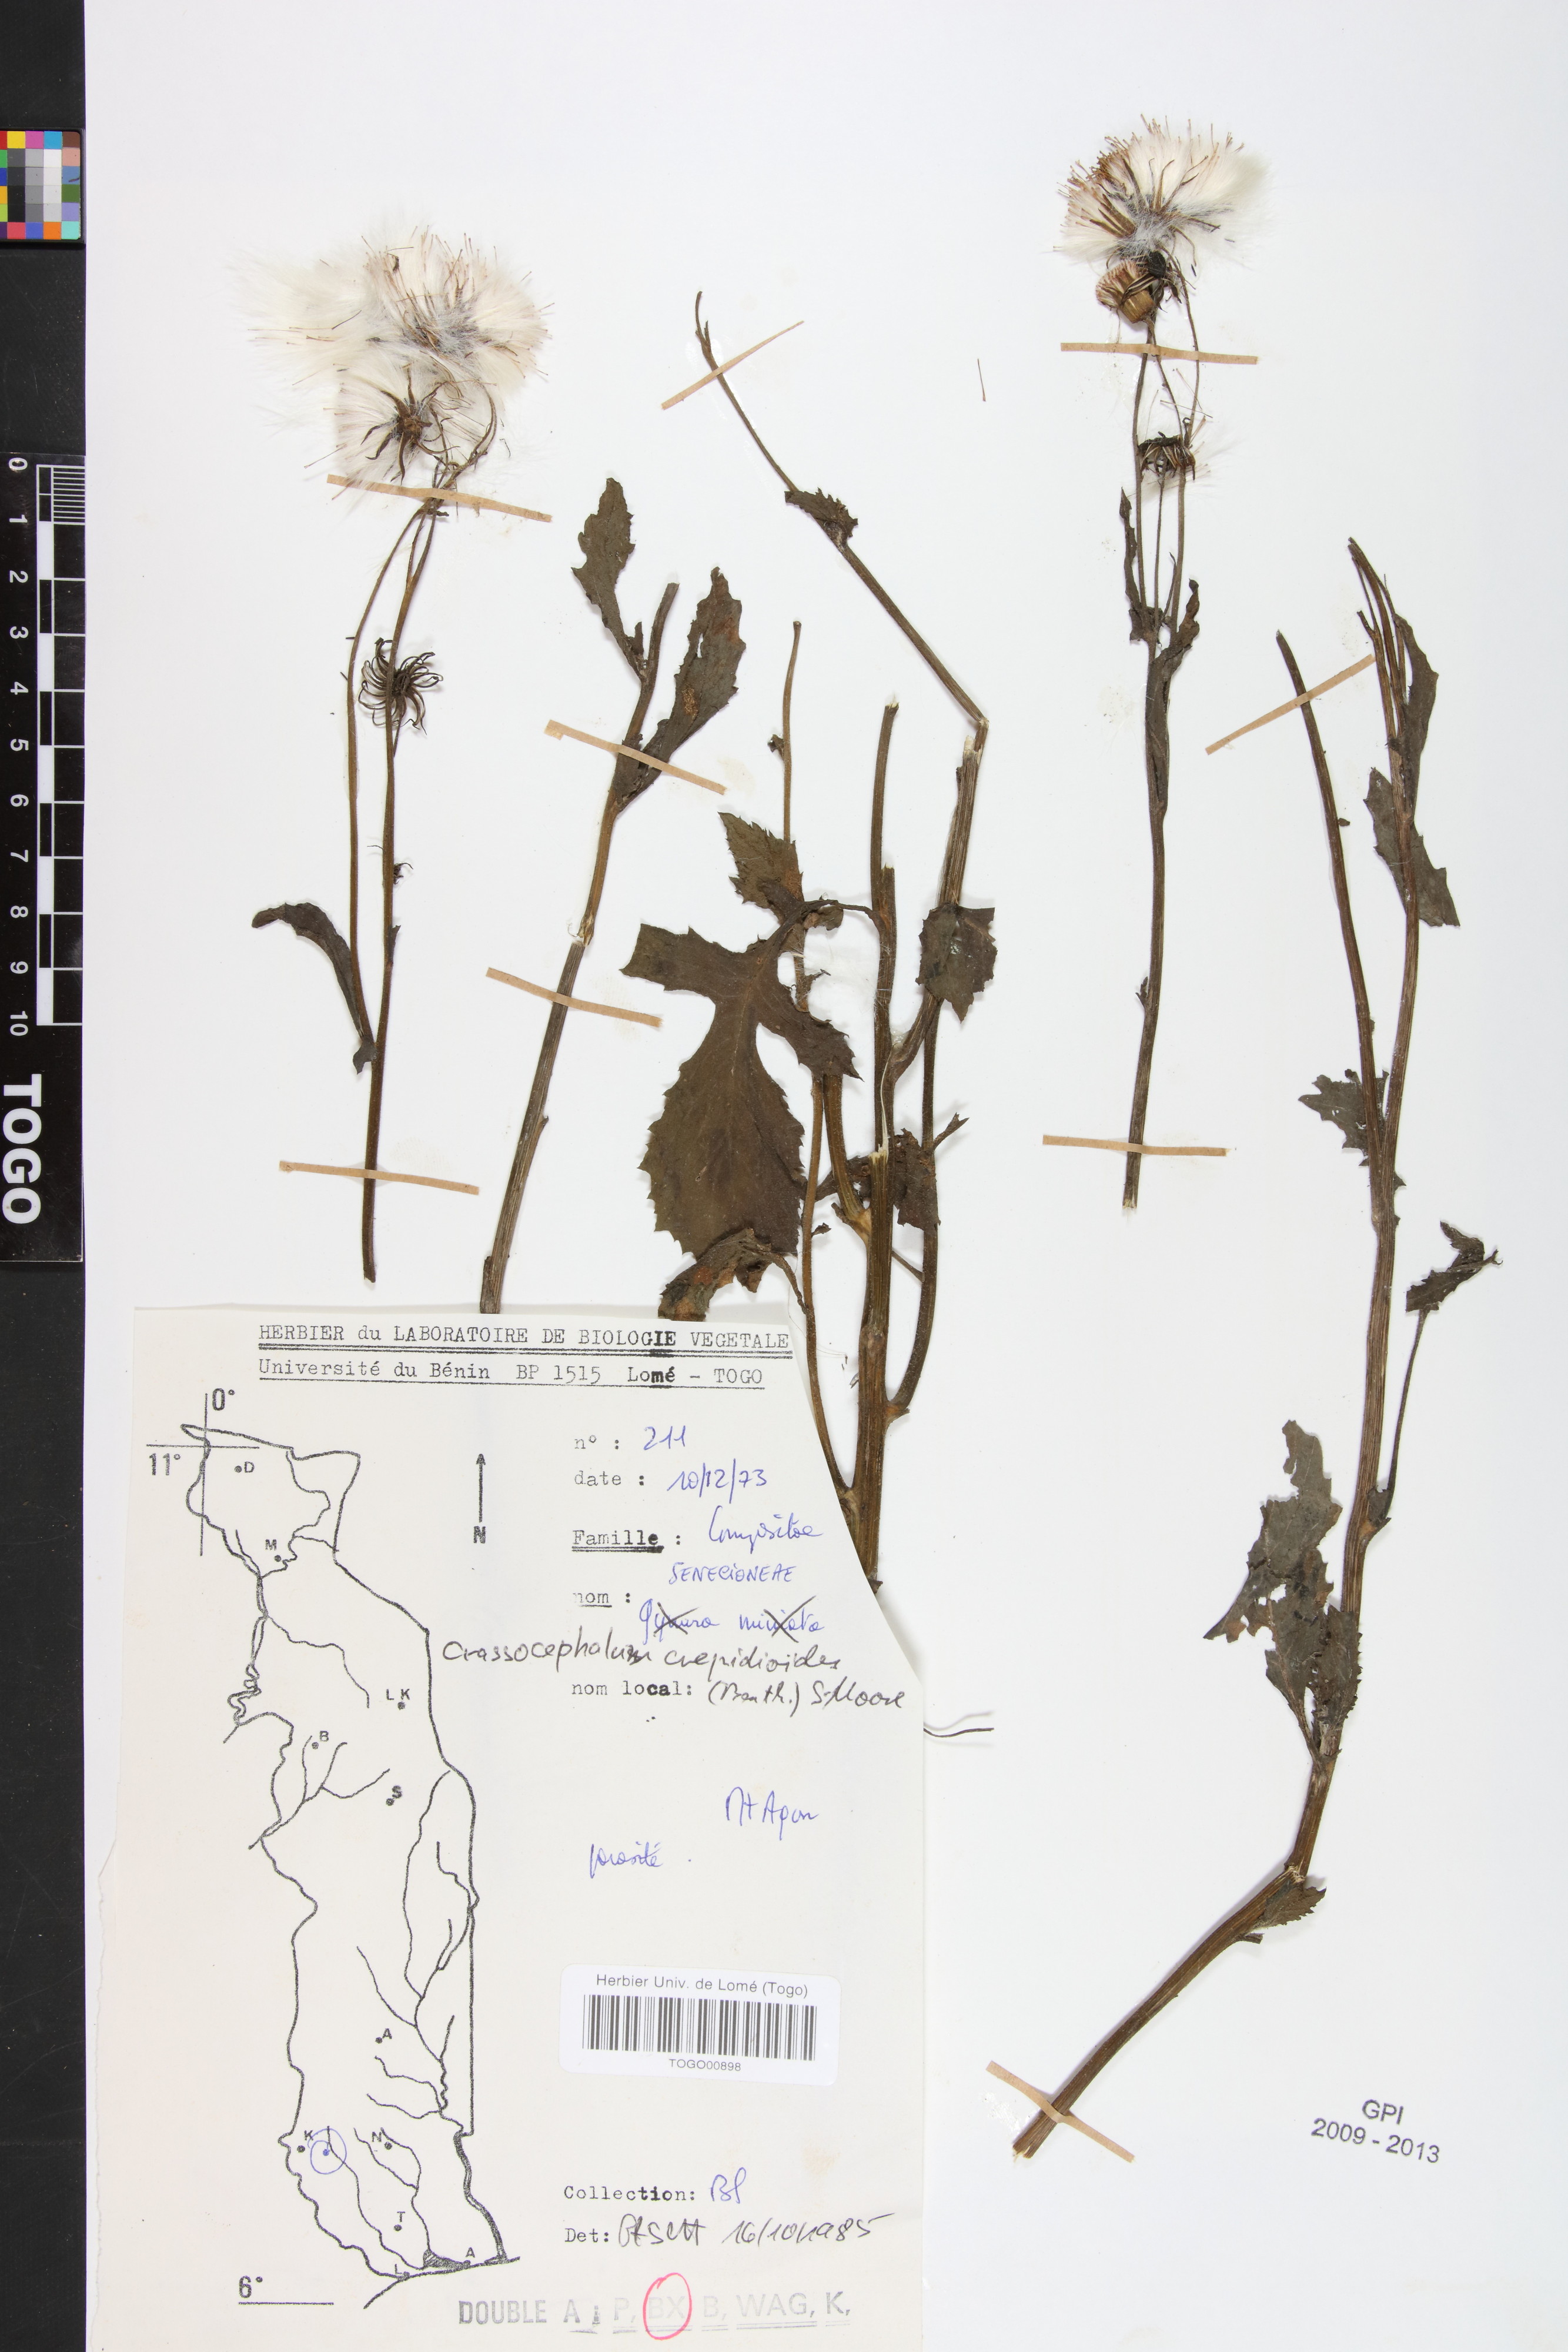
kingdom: Plantae
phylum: Tracheophyta
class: Magnoliopsida
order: Asterales
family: Asteraceae
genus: Crassocephalum
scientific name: Crassocephalum crepidioides
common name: Redflower ragleaf
